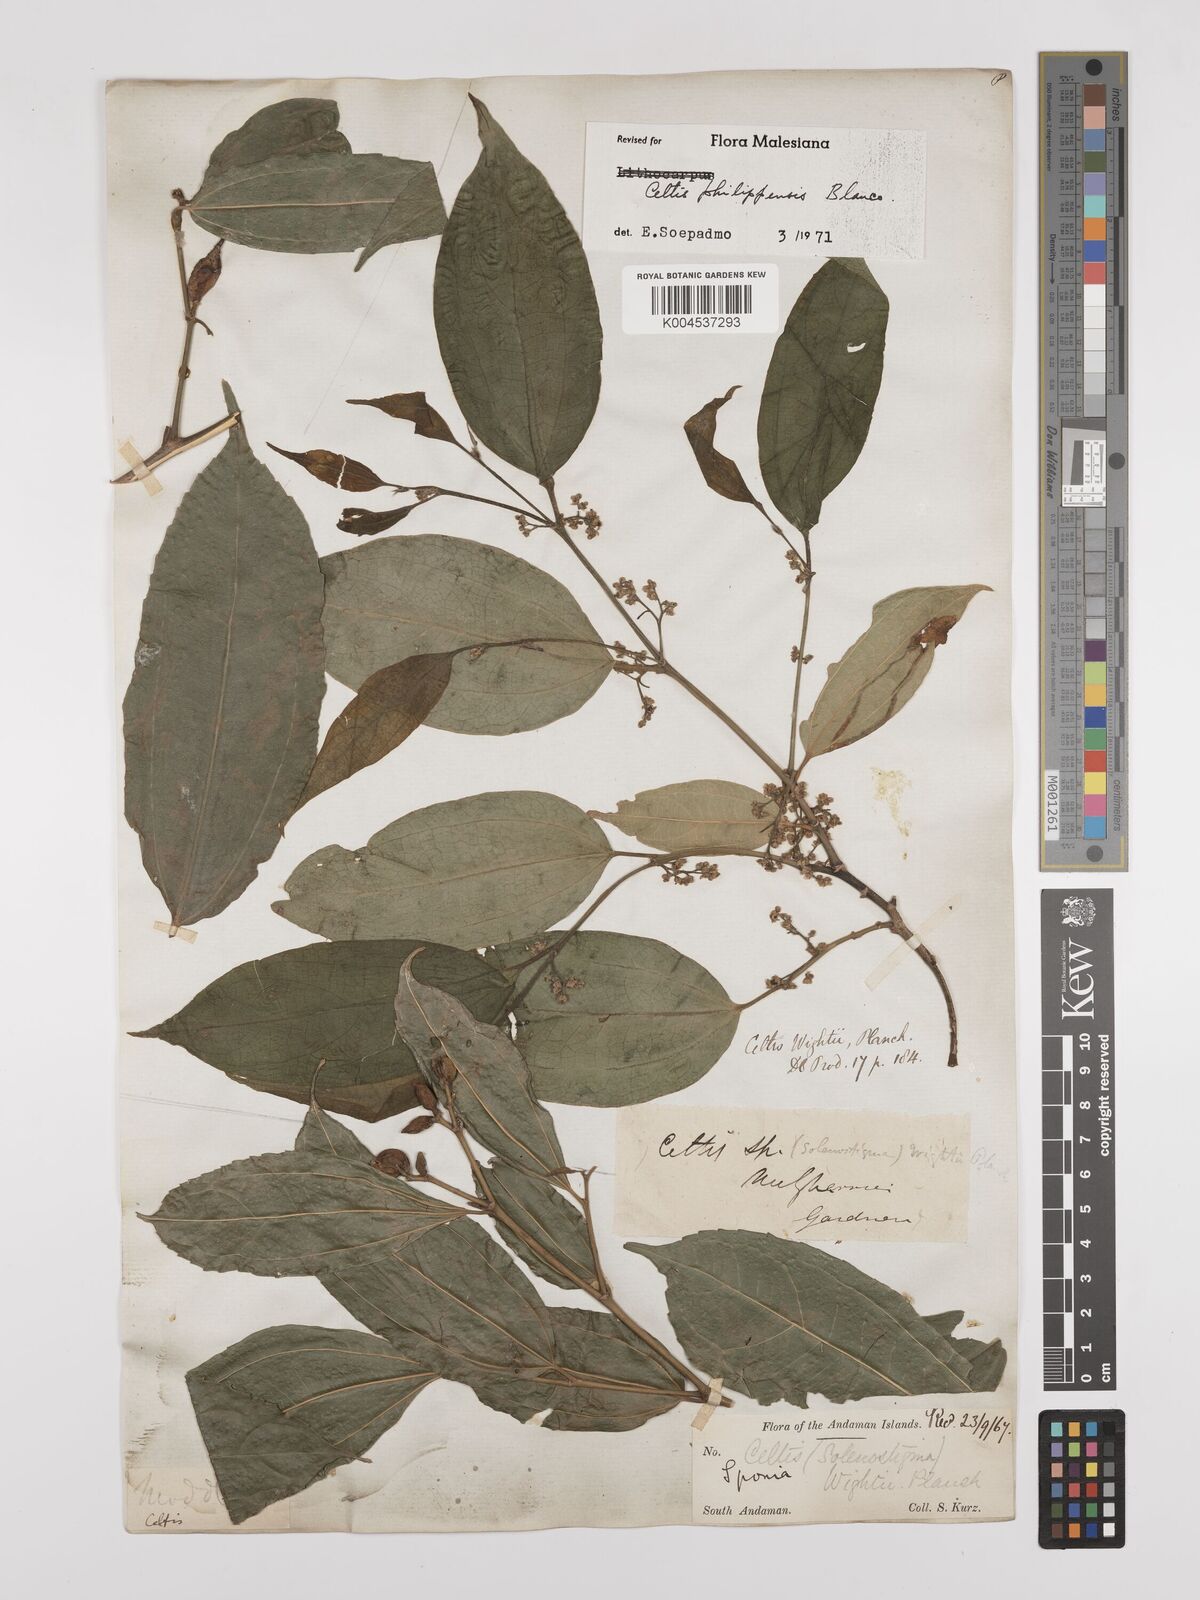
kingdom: Plantae
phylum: Tracheophyta
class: Magnoliopsida
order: Rosales
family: Cannabaceae
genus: Celtis
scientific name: Celtis philippensis
